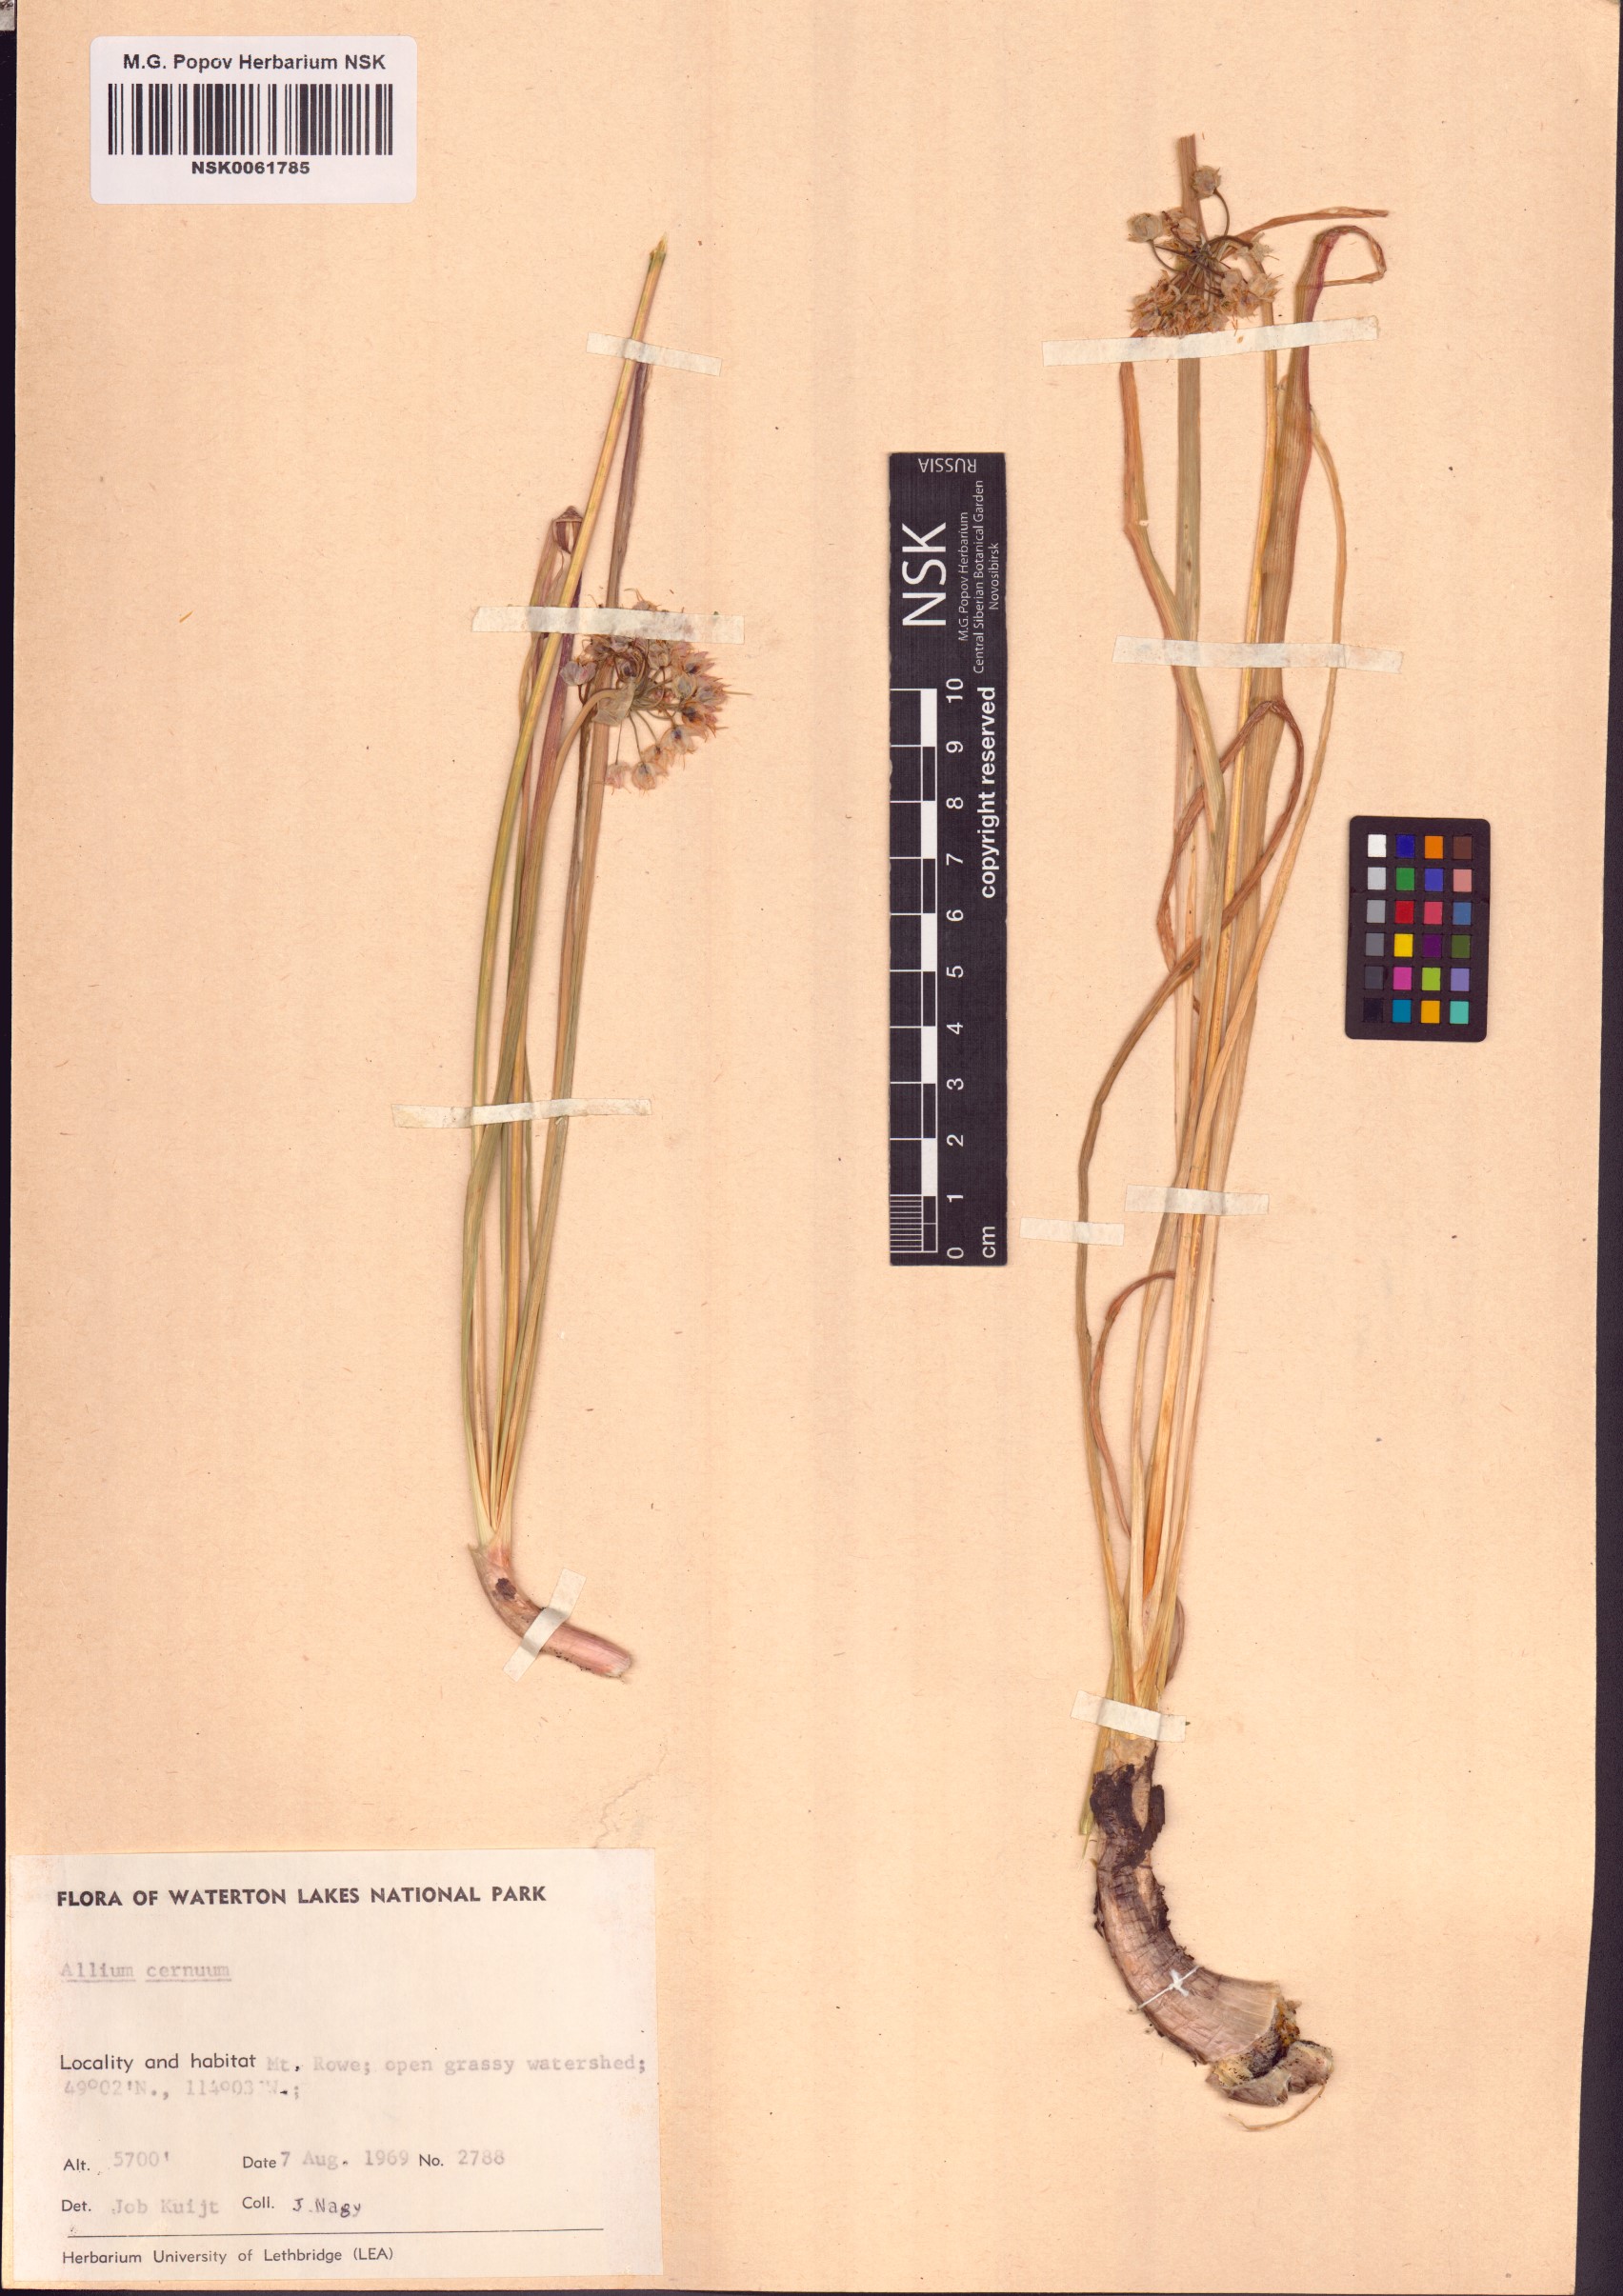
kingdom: Plantae
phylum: Tracheophyta
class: Liliopsida
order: Asparagales
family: Amaryllidaceae
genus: Allium
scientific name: Allium cernuum
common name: Nodding onion
